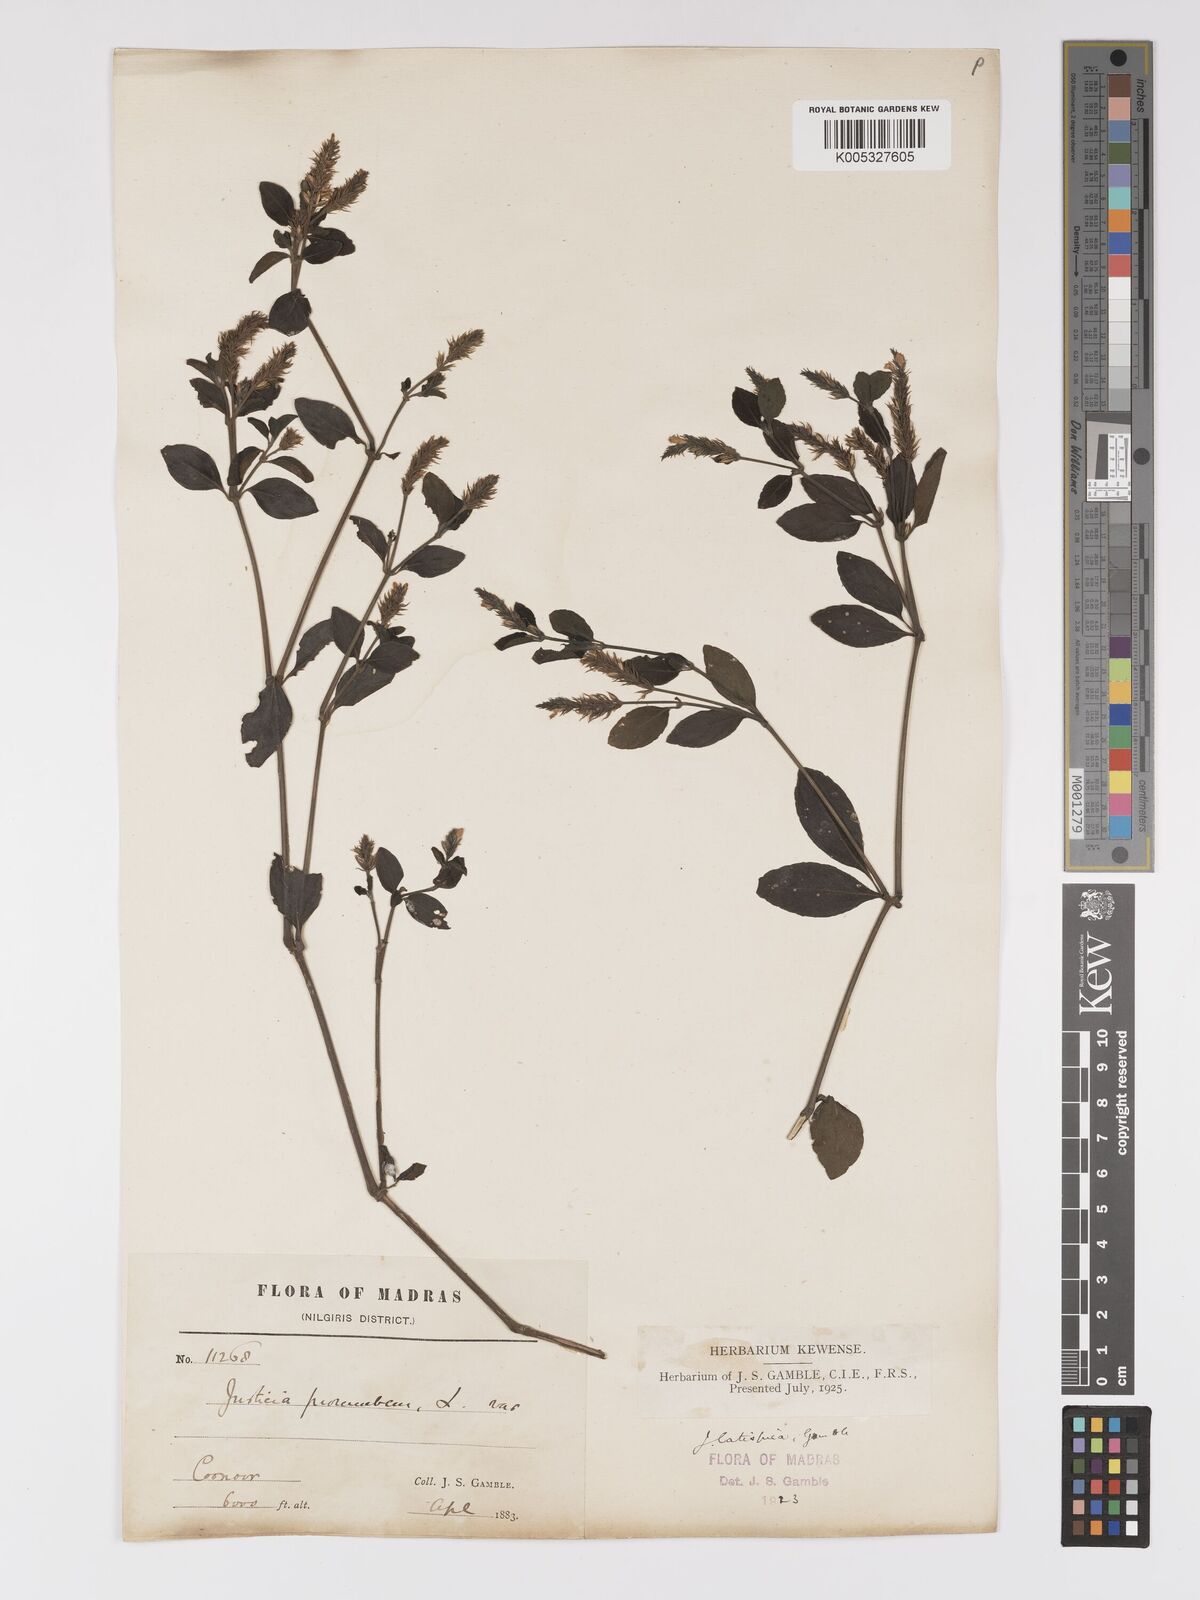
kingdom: Plantae
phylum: Tracheophyta
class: Magnoliopsida
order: Lamiales
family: Acanthaceae
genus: Rostellularia
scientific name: Rostellularia latispica
